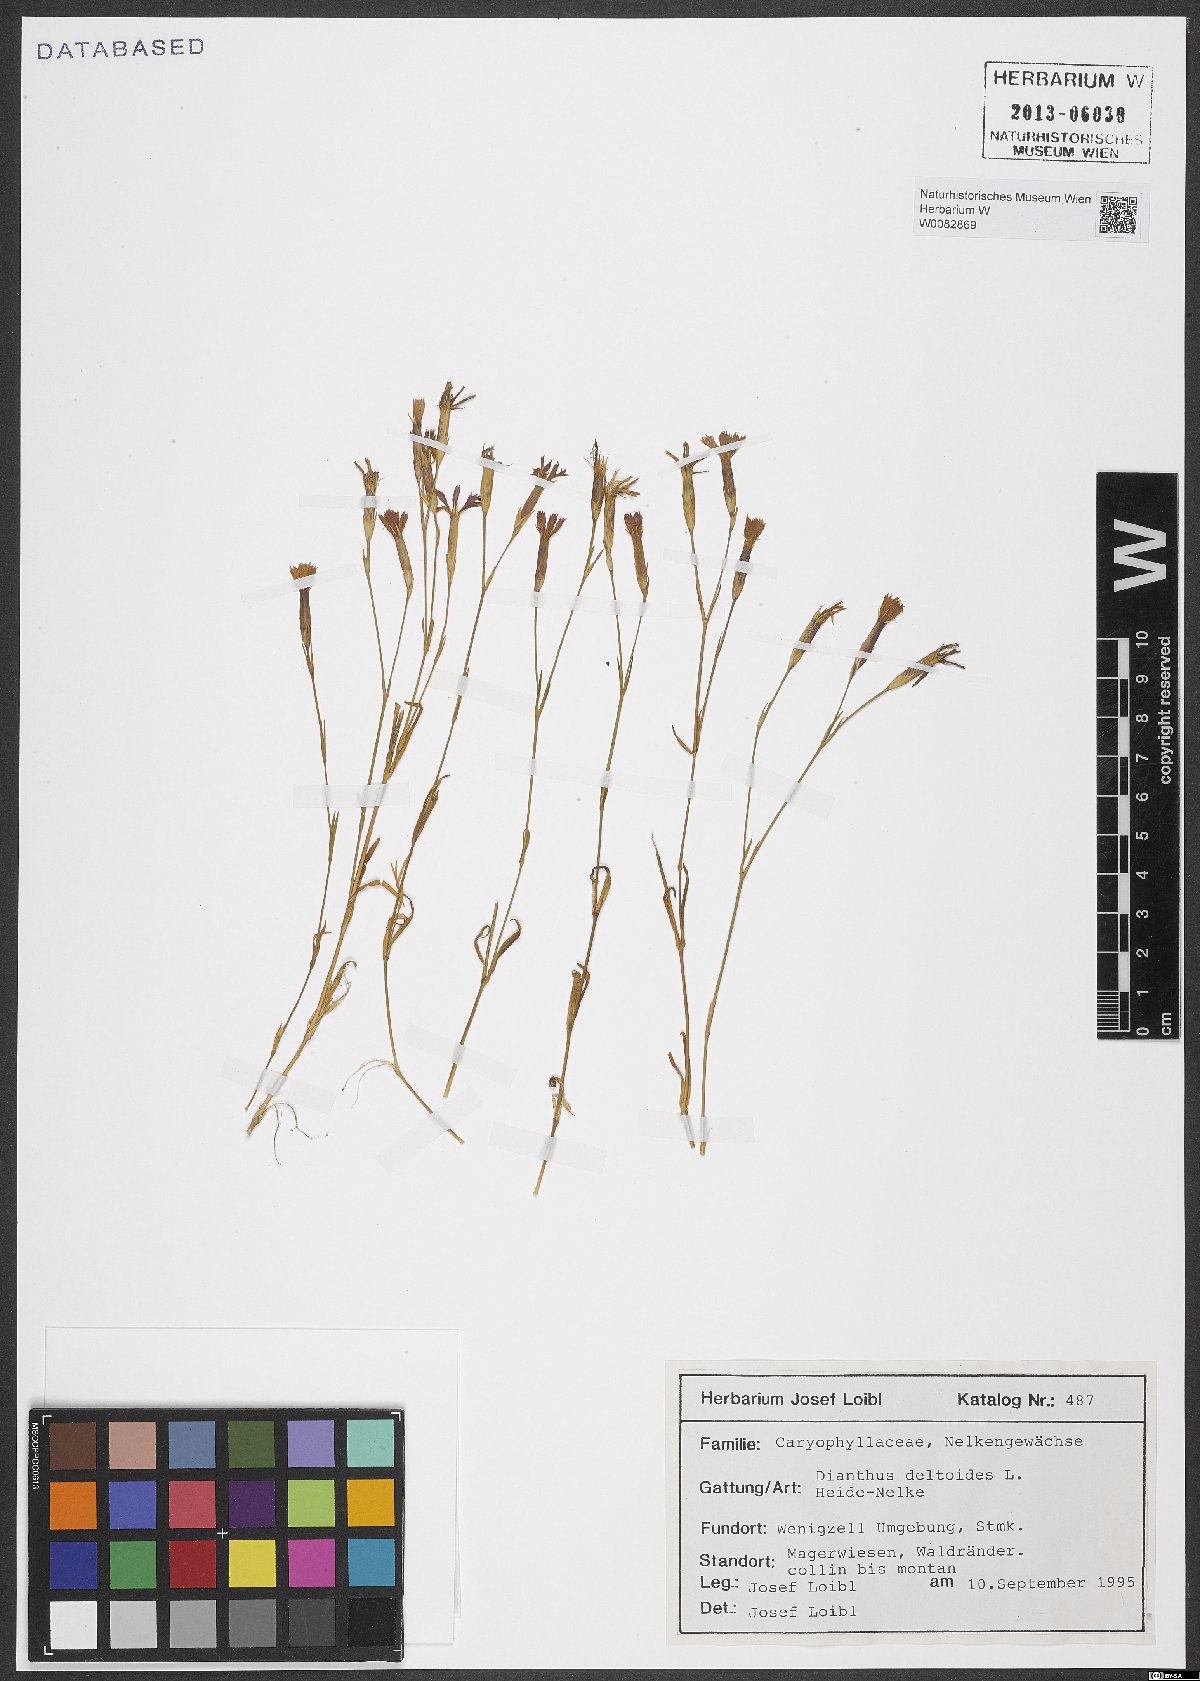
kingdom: Plantae
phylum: Tracheophyta
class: Magnoliopsida
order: Caryophyllales
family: Caryophyllaceae
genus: Dianthus
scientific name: Dianthus deltoides
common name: Maiden pink
